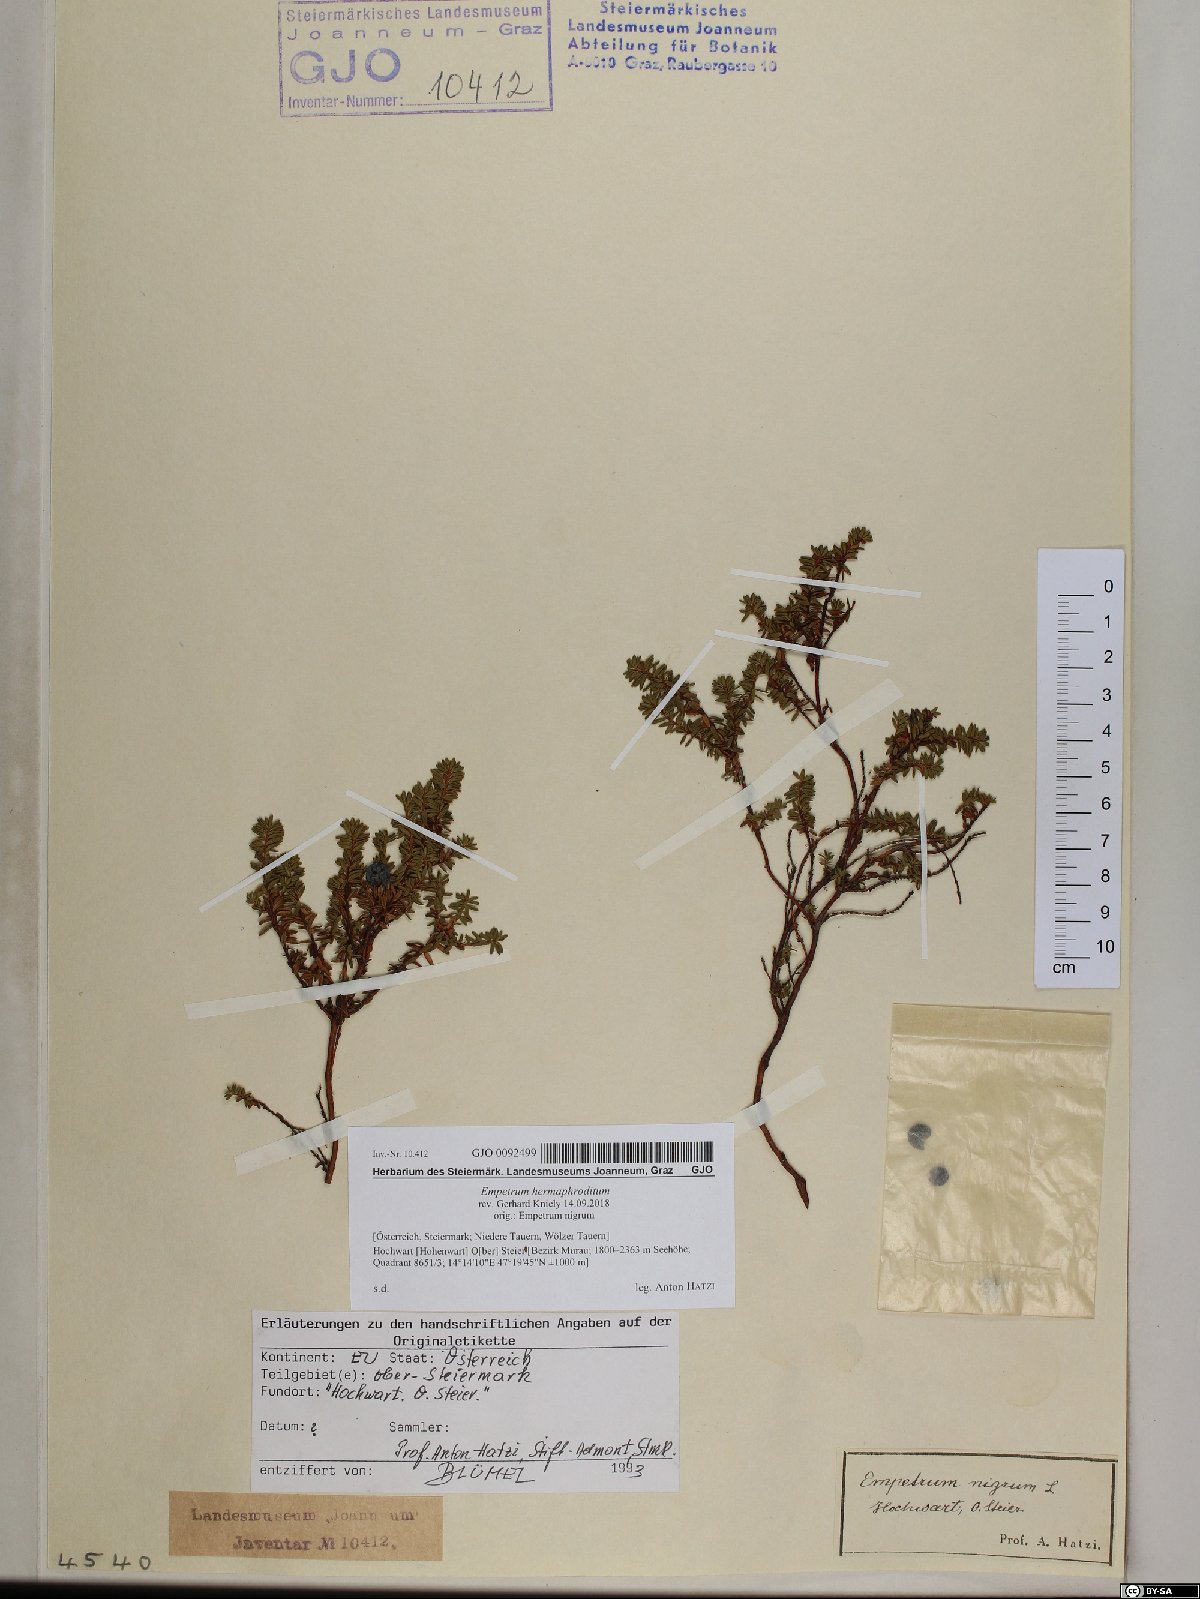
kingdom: Plantae
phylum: Tracheophyta
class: Magnoliopsida
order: Ericales
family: Ericaceae
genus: Empetrum
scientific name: Empetrum hermaphroditum
